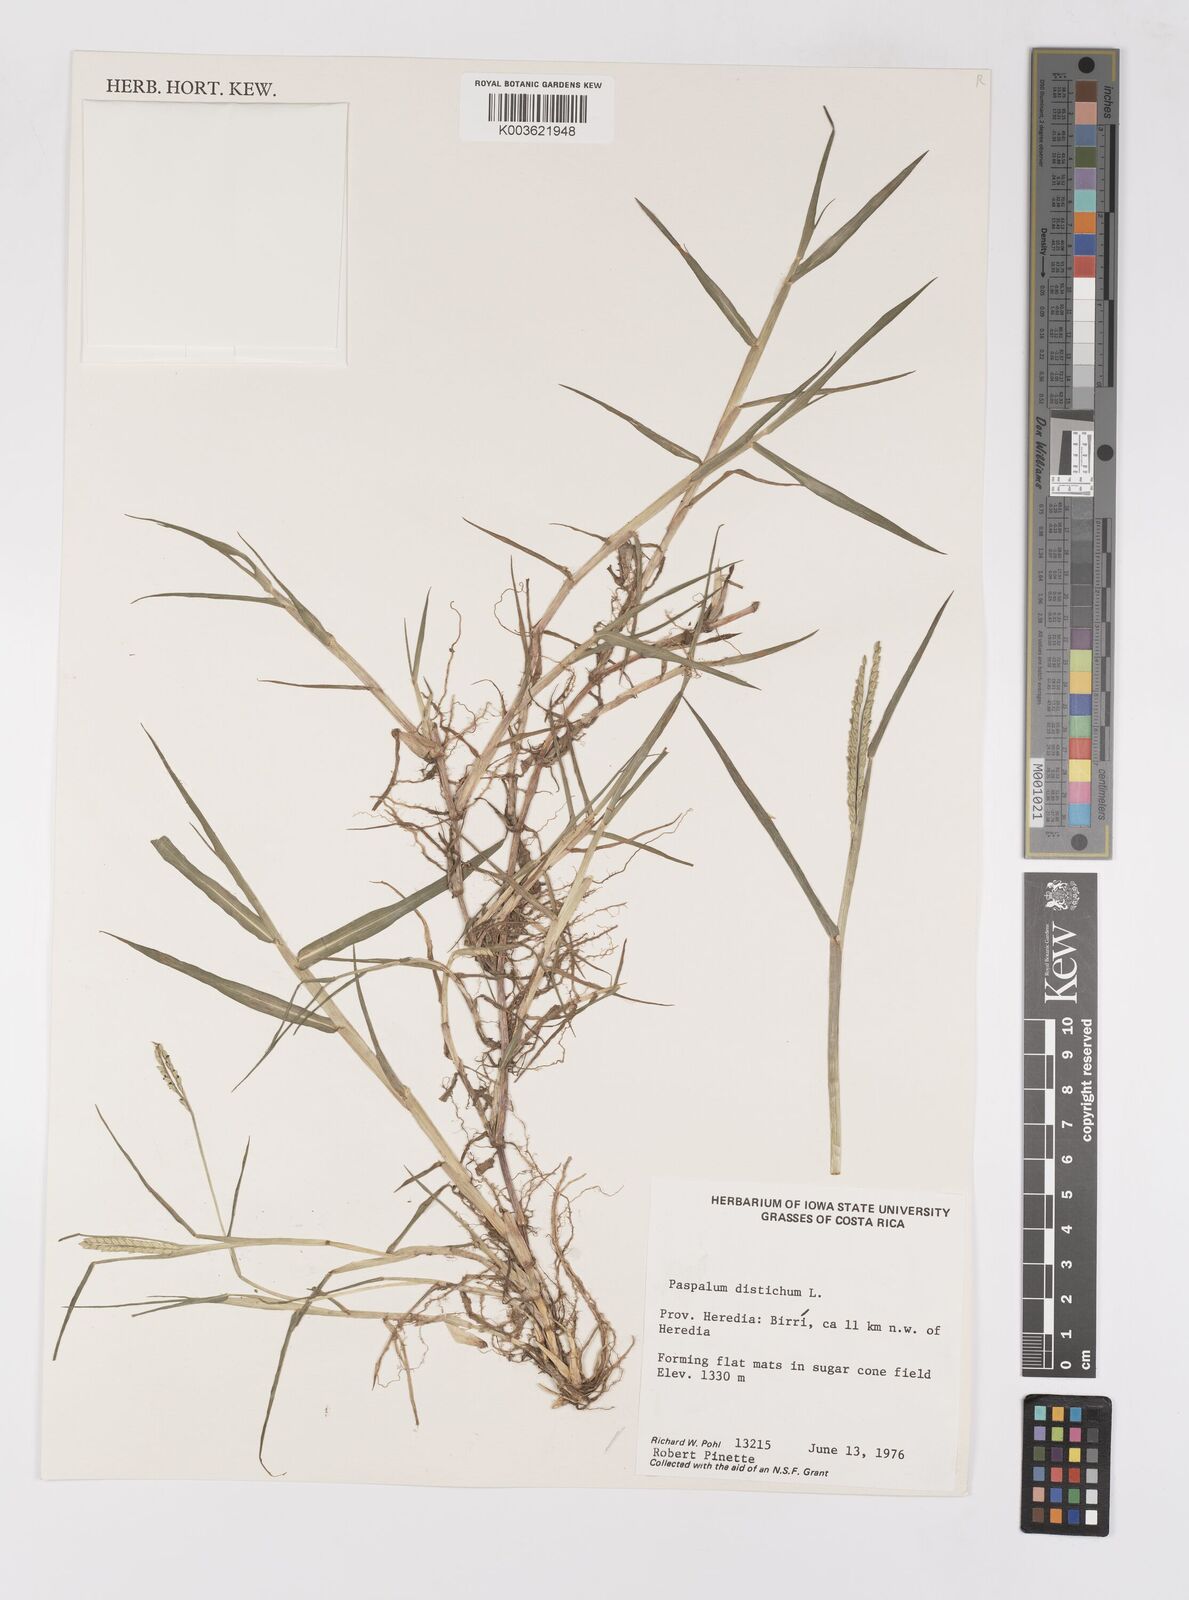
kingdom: Plantae
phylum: Tracheophyta
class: Liliopsida
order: Poales
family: Poaceae
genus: Paspalum
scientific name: Paspalum distichum
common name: Knotgrass
